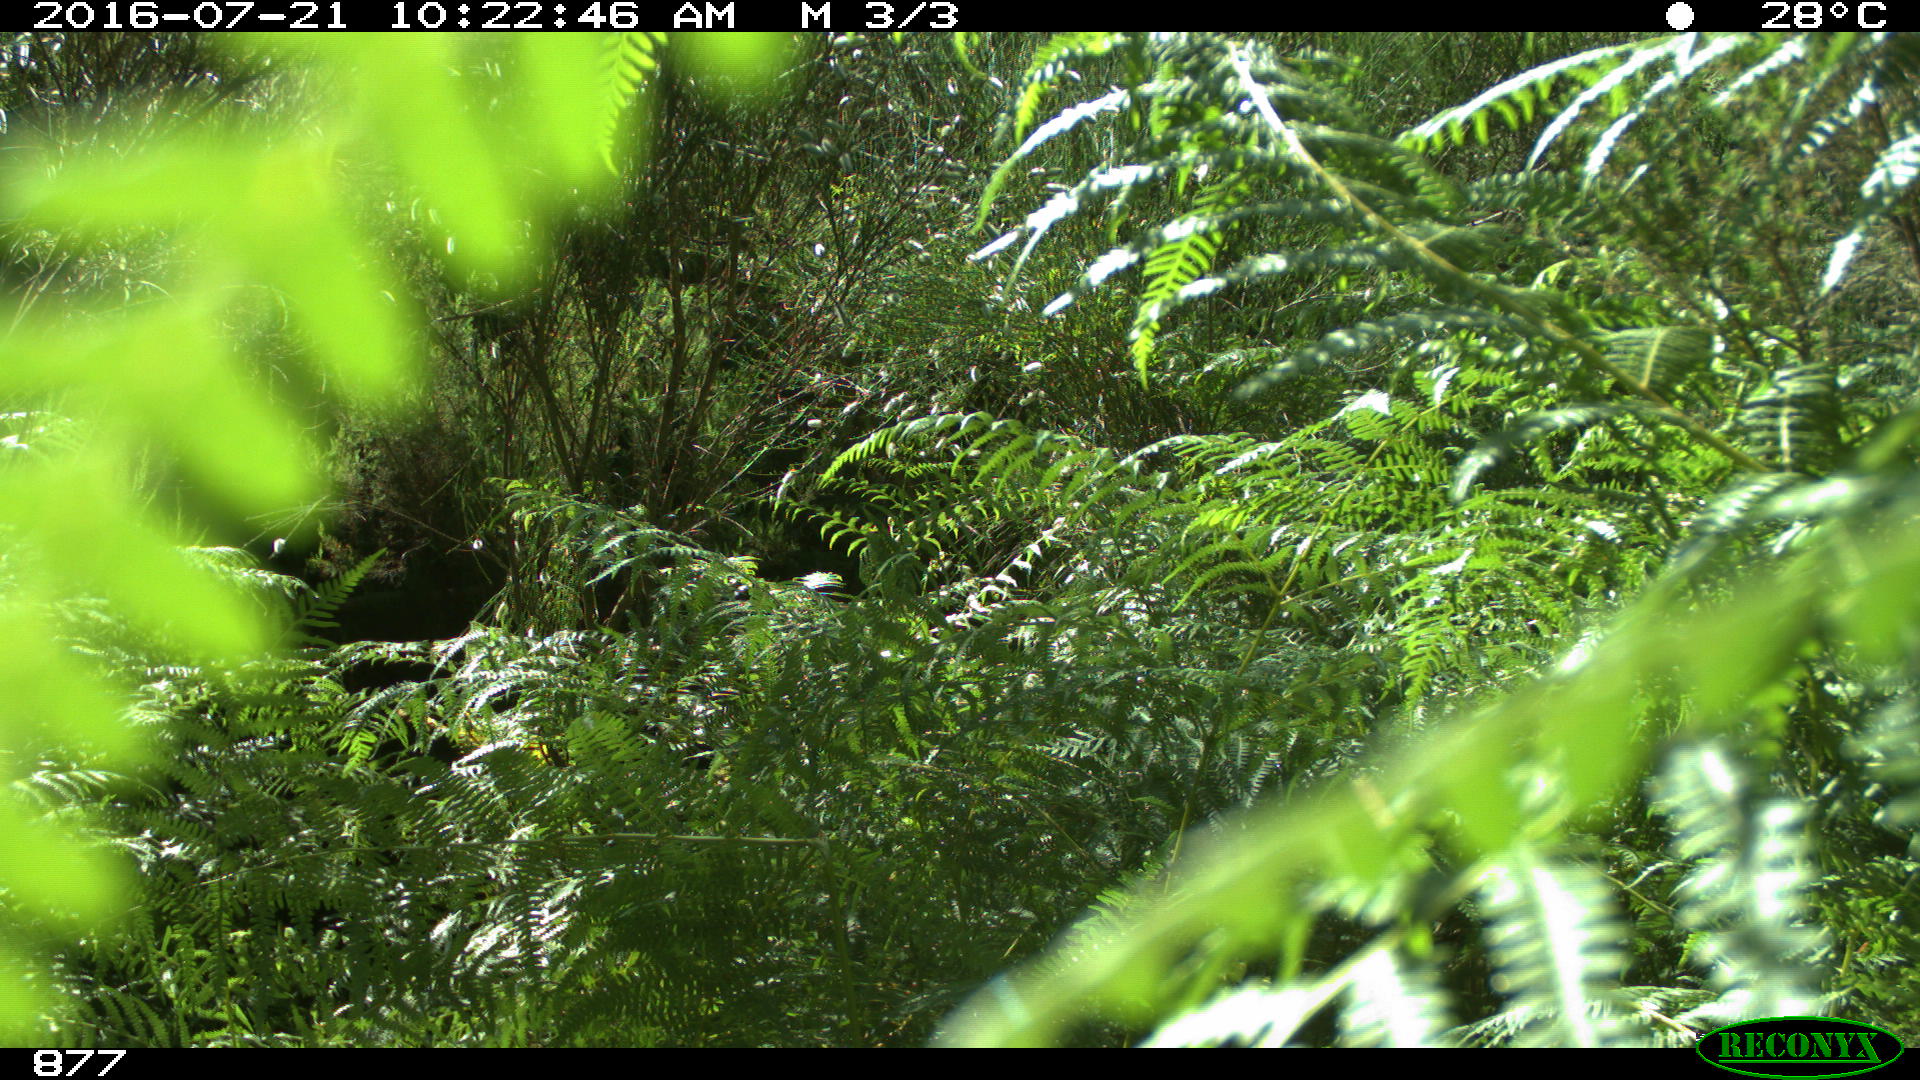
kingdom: Animalia
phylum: Chordata
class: Mammalia
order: Artiodactyla
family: Bovidae
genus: Bos
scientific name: Bos taurus
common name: Domesticated cattle
